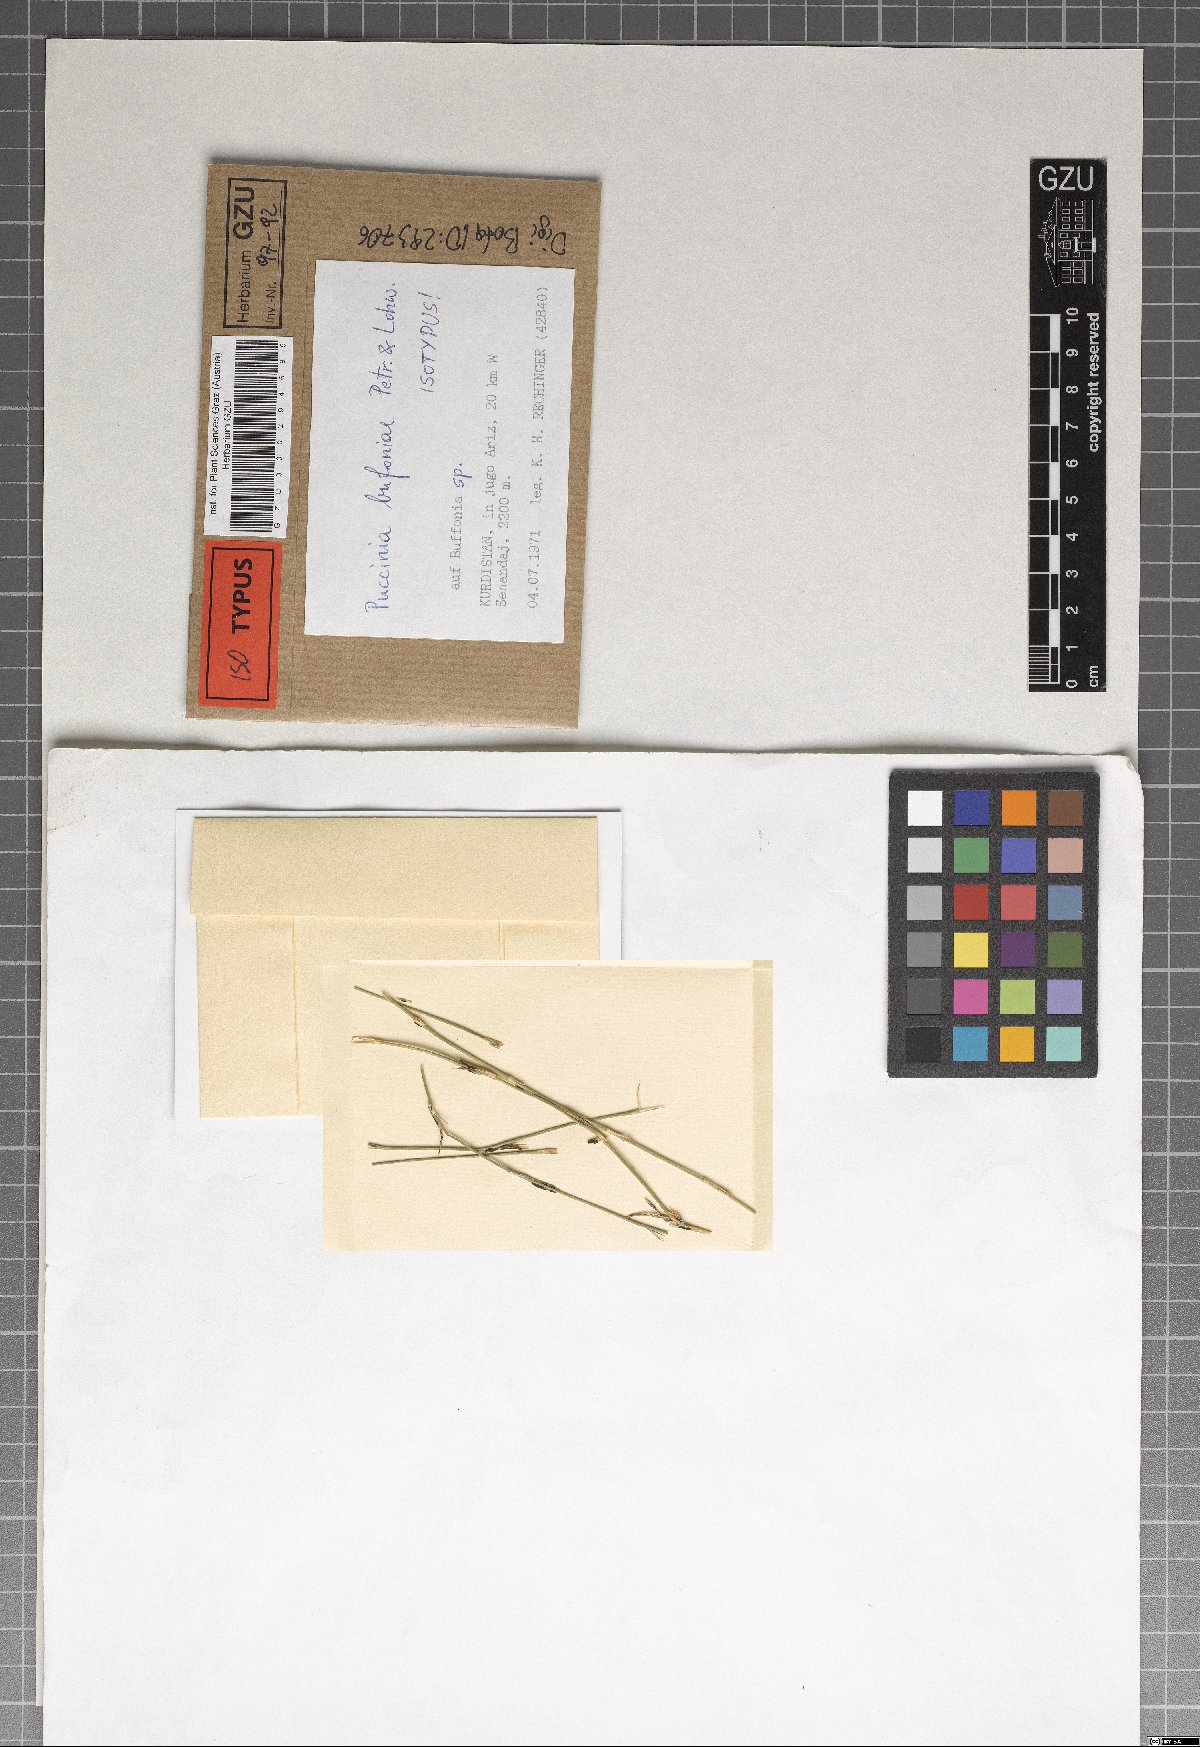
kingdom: Fungi
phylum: Basidiomycota
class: Pucciniomycetes
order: Pucciniales
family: Pucciniaceae
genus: Puccinia
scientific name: Puccinia bufoniae
